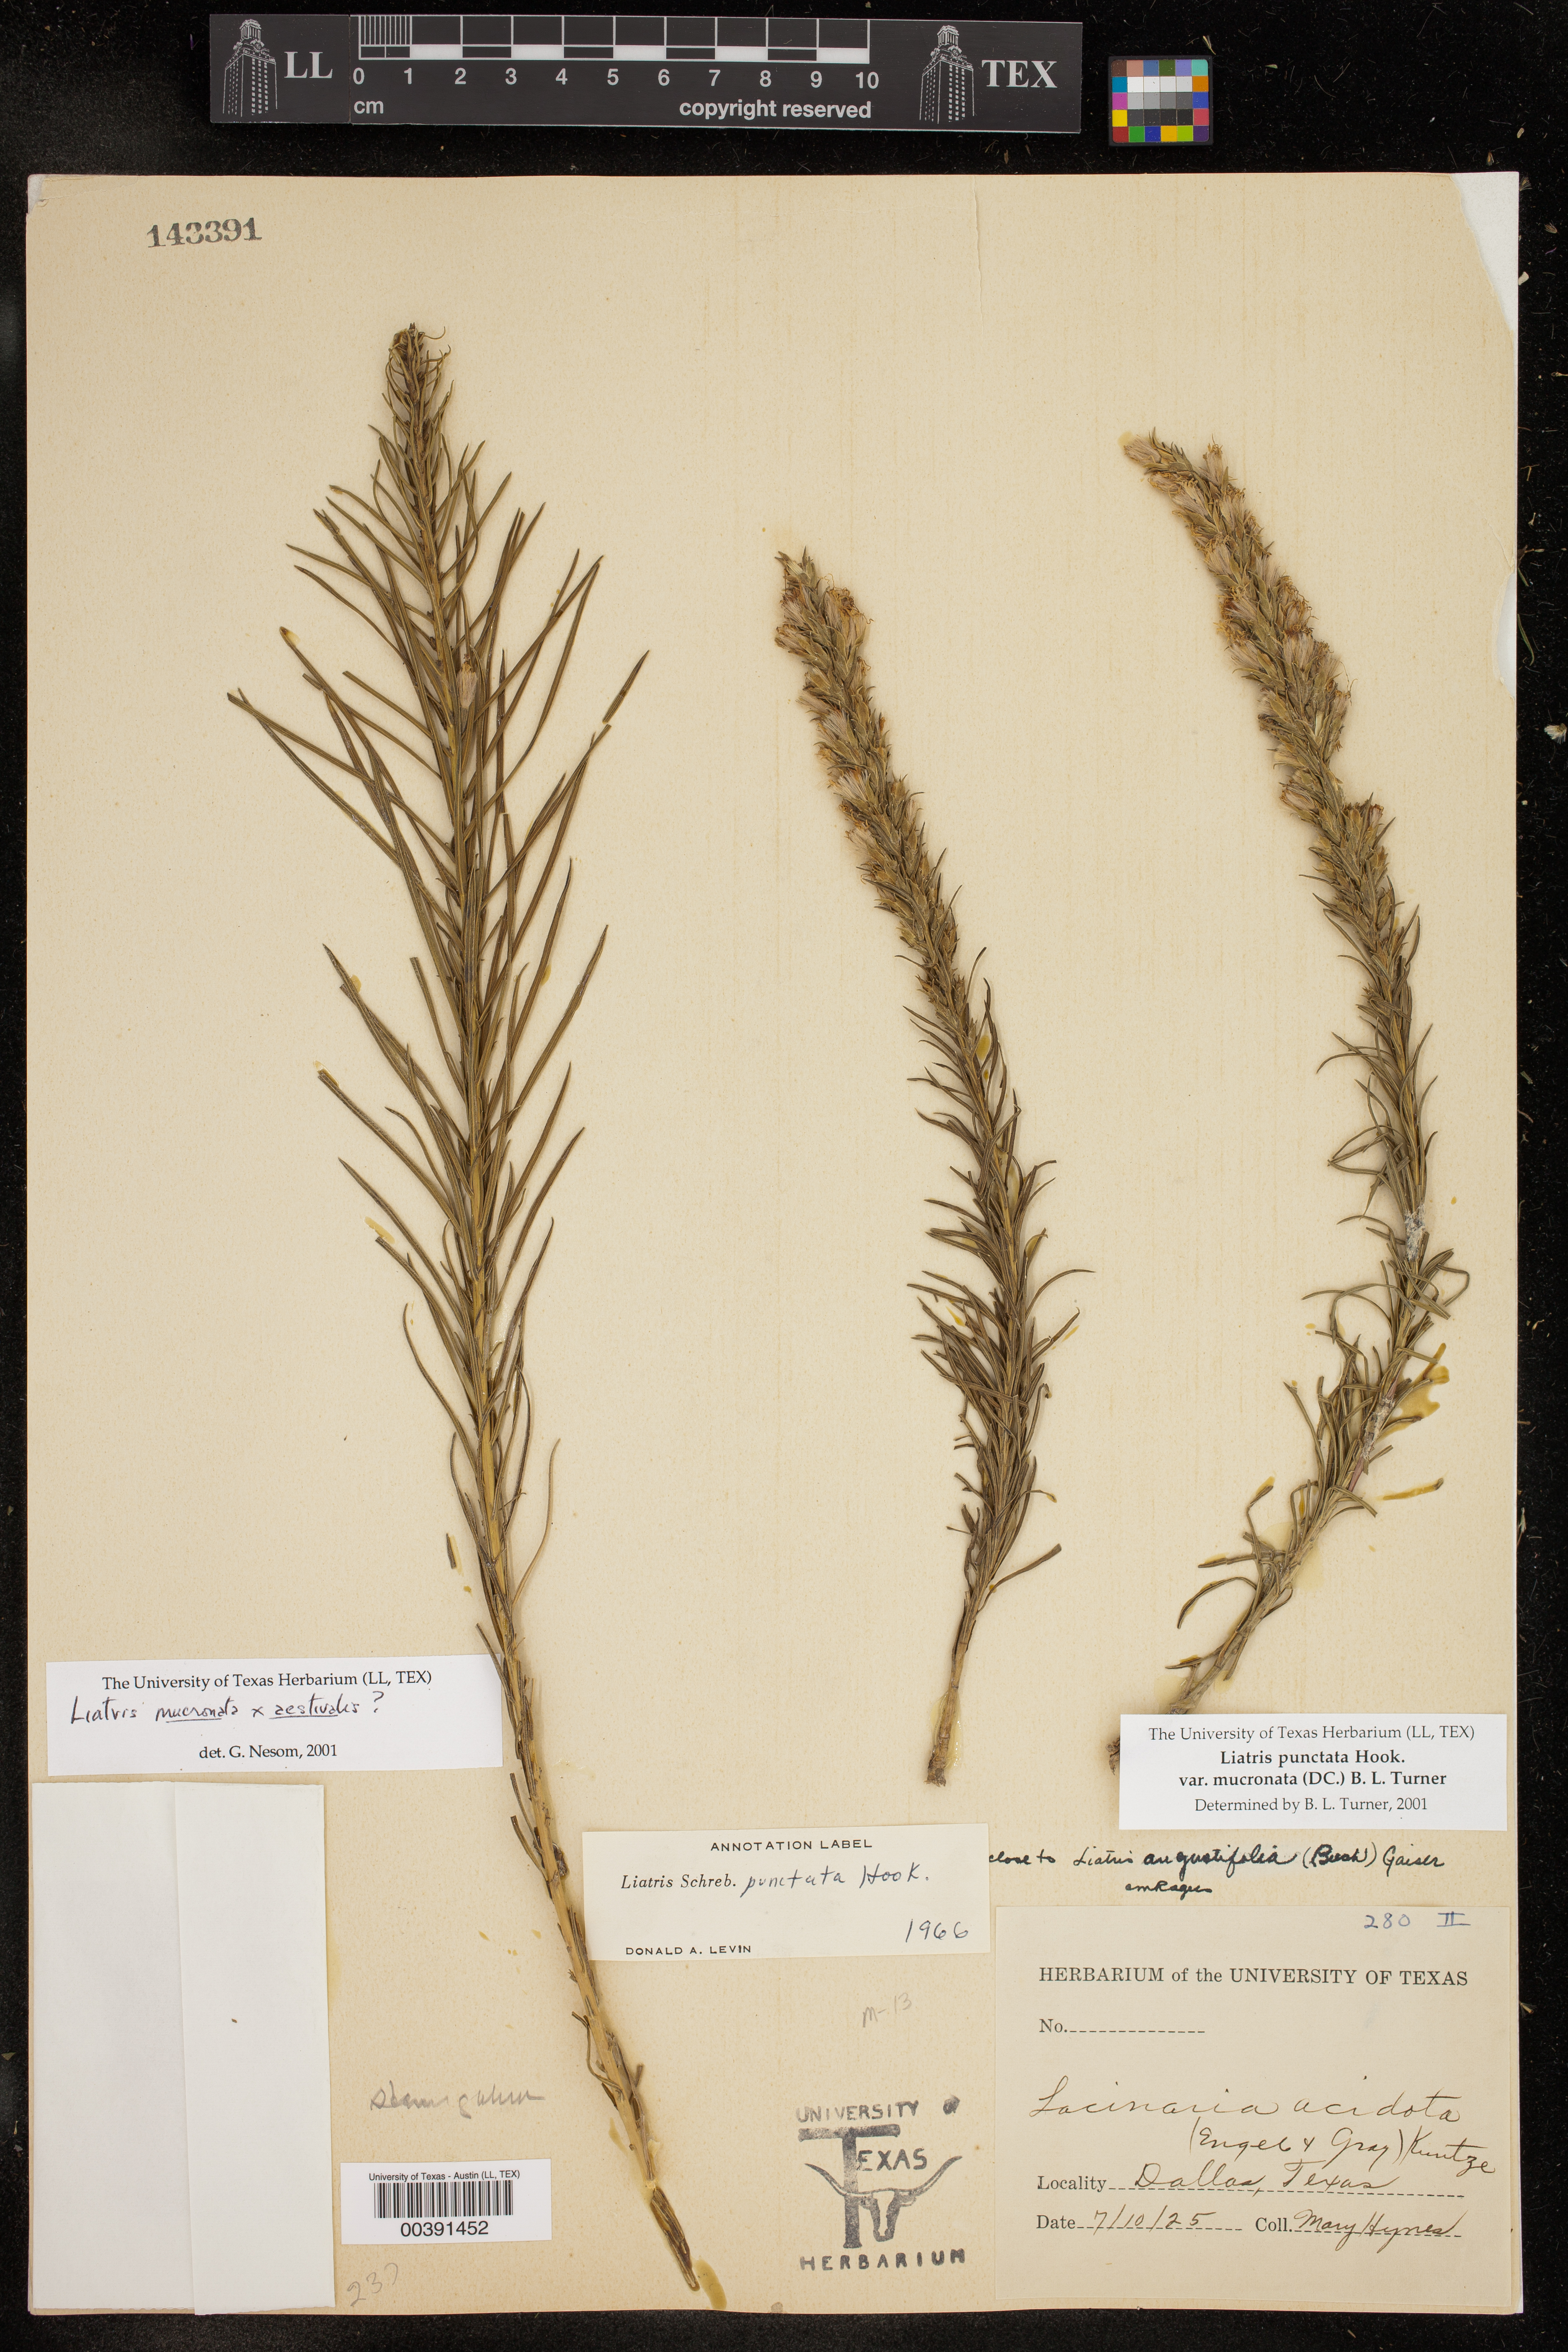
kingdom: Plantae
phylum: Tracheophyta
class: Magnoliopsida
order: Asterales
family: Asteraceae
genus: Liatris
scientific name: Liatris aestivalis
